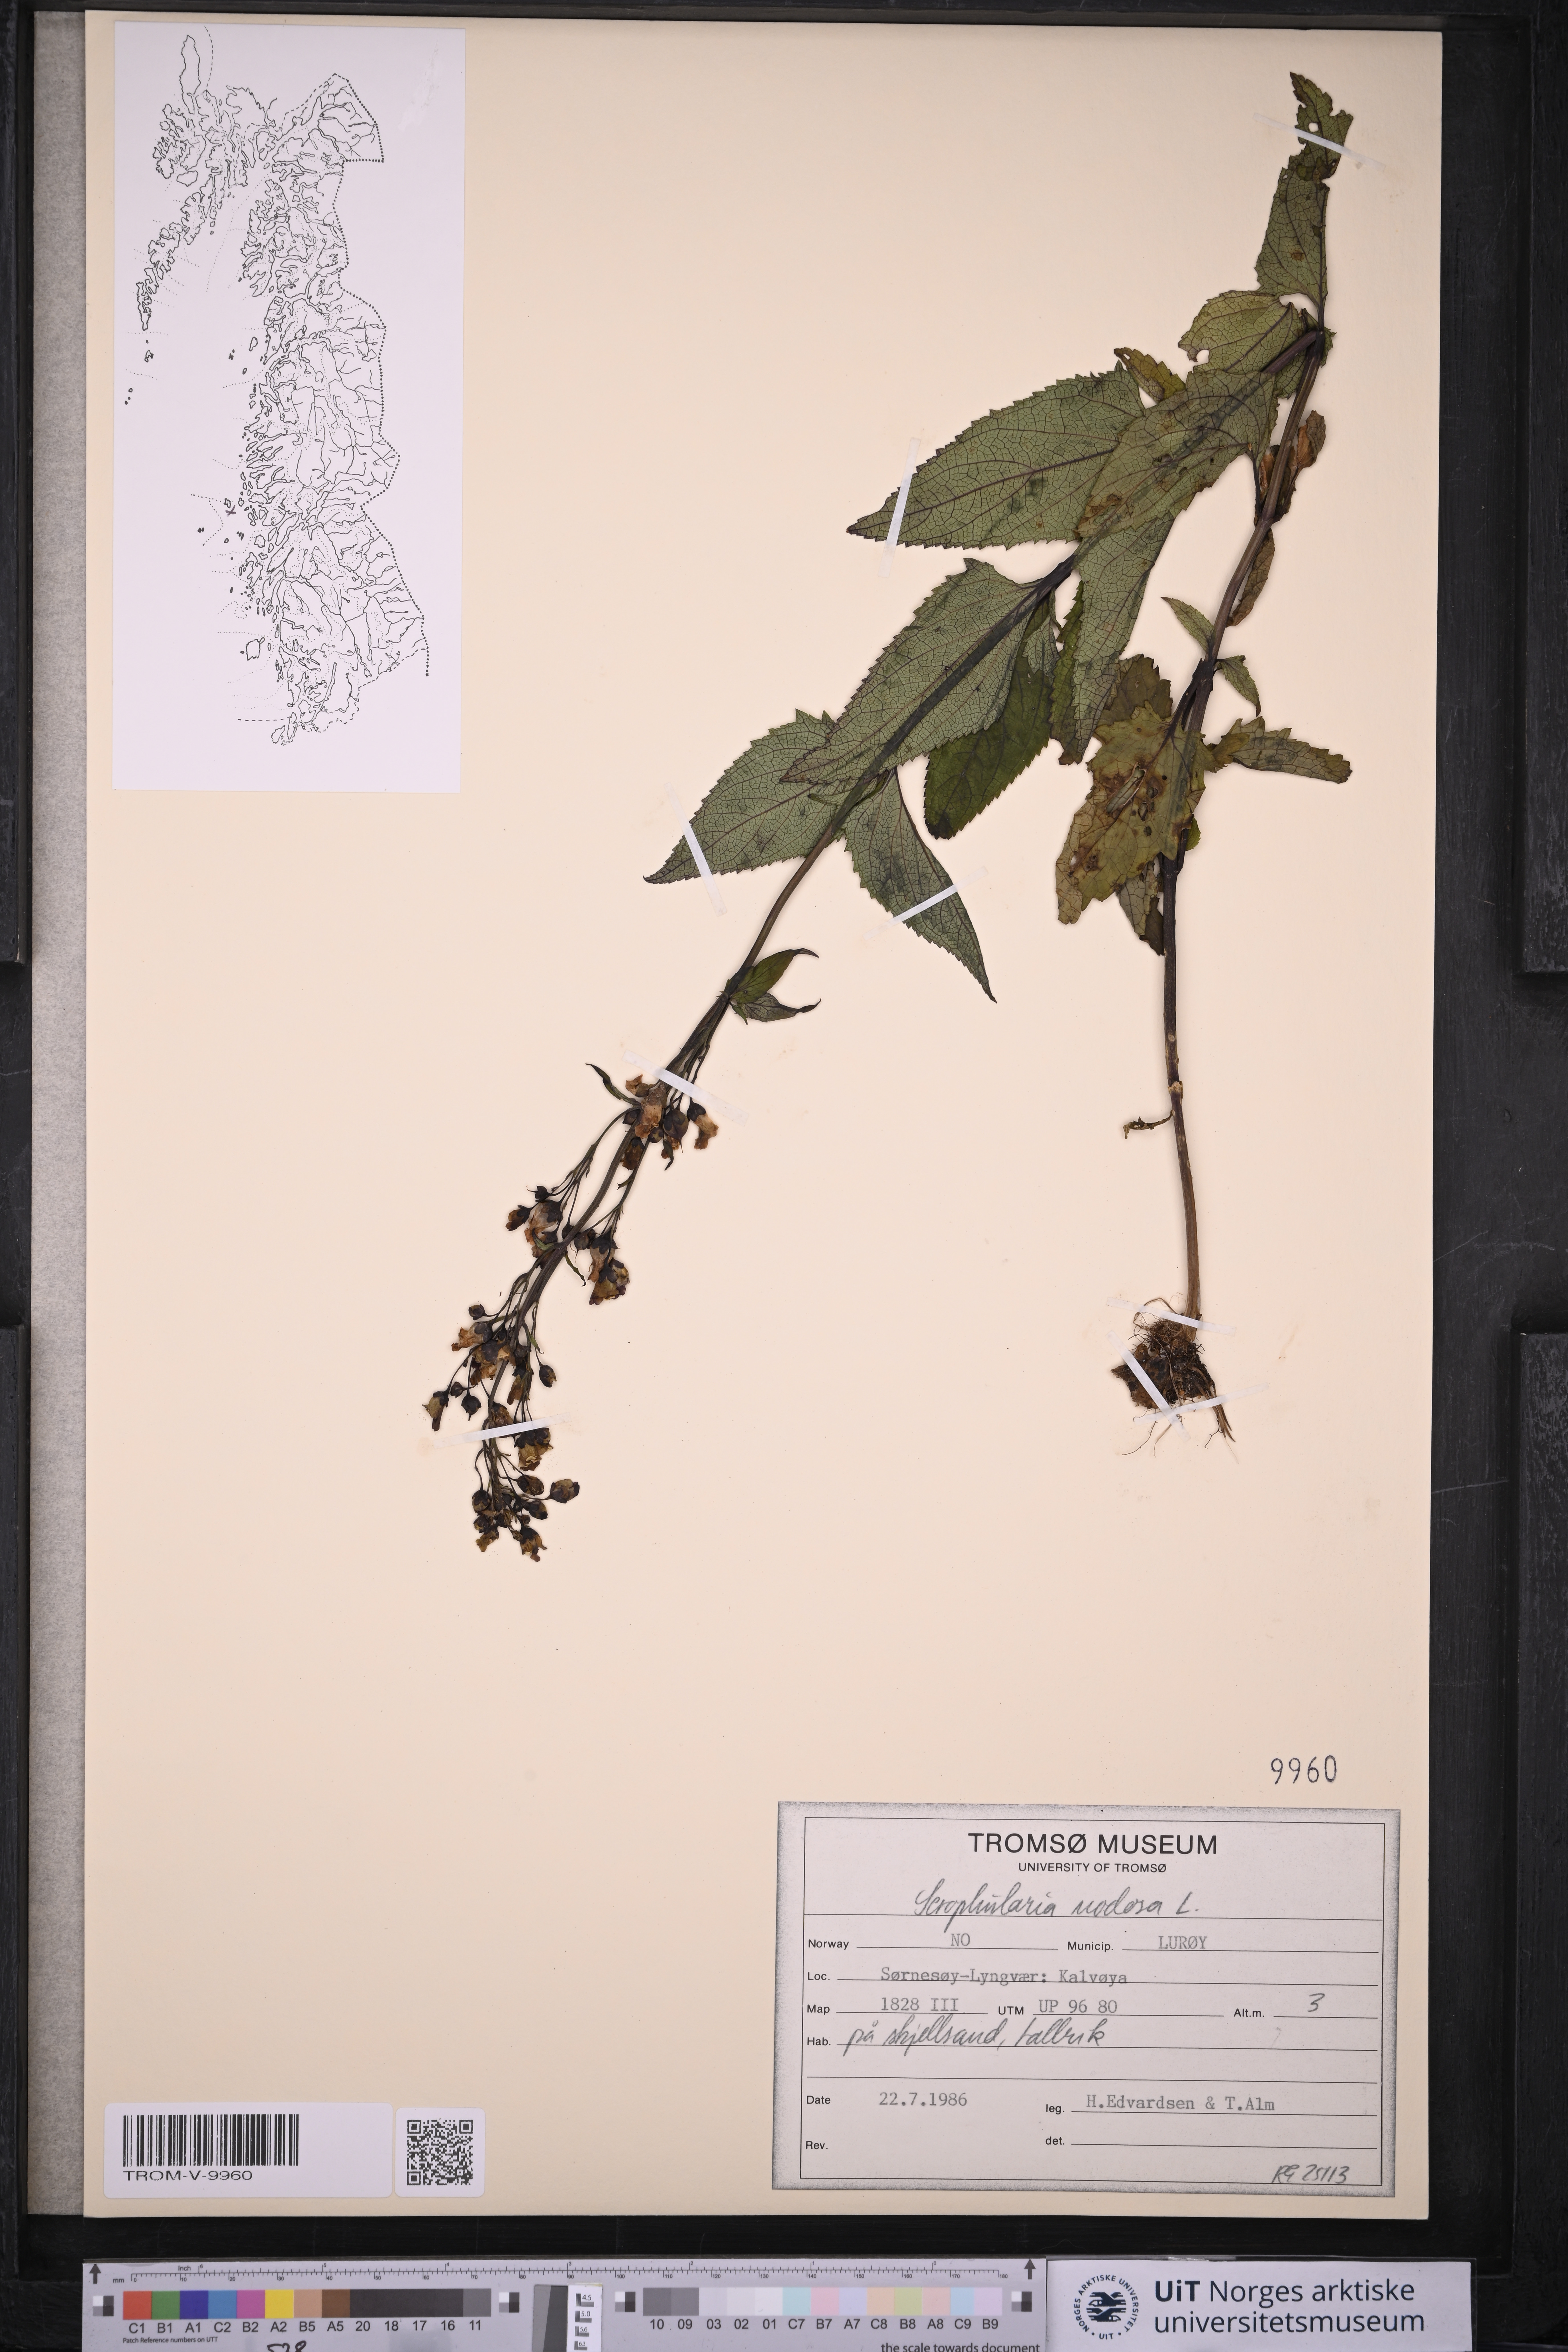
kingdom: Plantae
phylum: Tracheophyta
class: Magnoliopsida
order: Lamiales
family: Scrophulariaceae
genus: Scrophularia
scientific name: Scrophularia nodosa
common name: Common figwort
